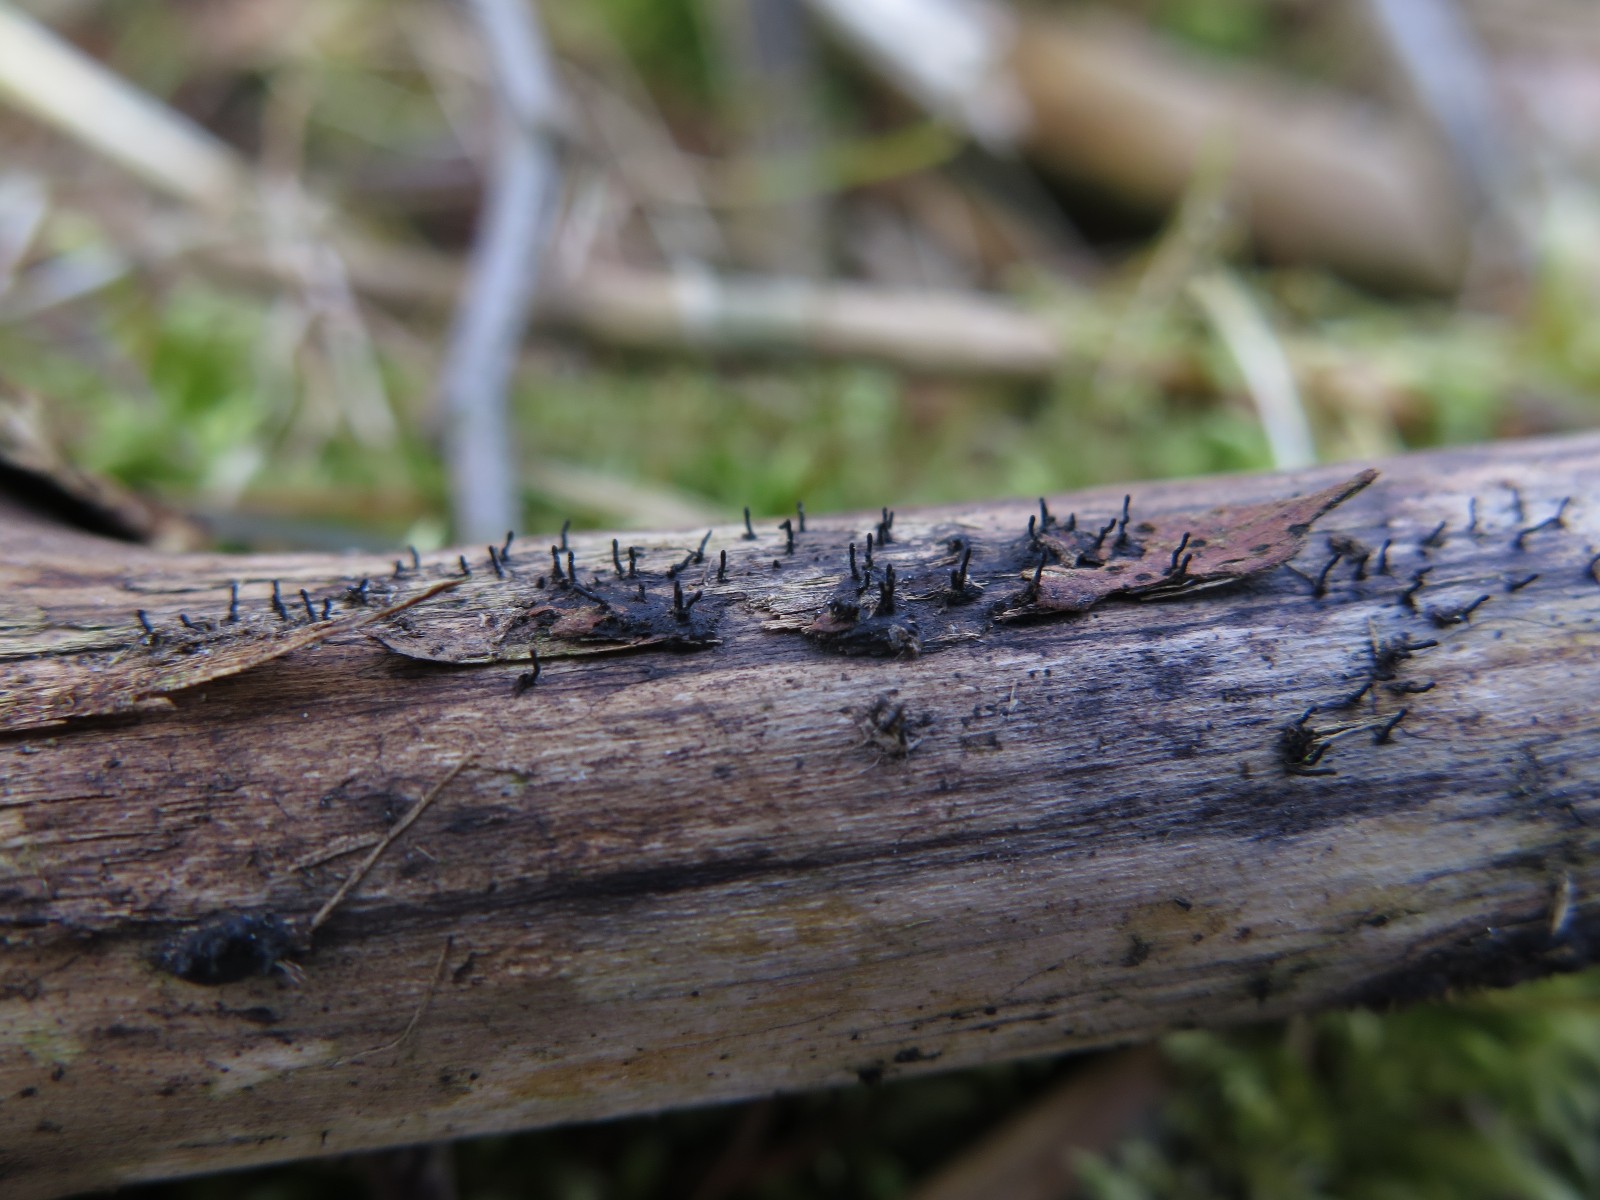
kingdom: Fungi
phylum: Ascomycota
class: Sordariomycetes
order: Xylariales
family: Diatrypaceae
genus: Peroneutypa
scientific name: Peroneutypa scoparia
